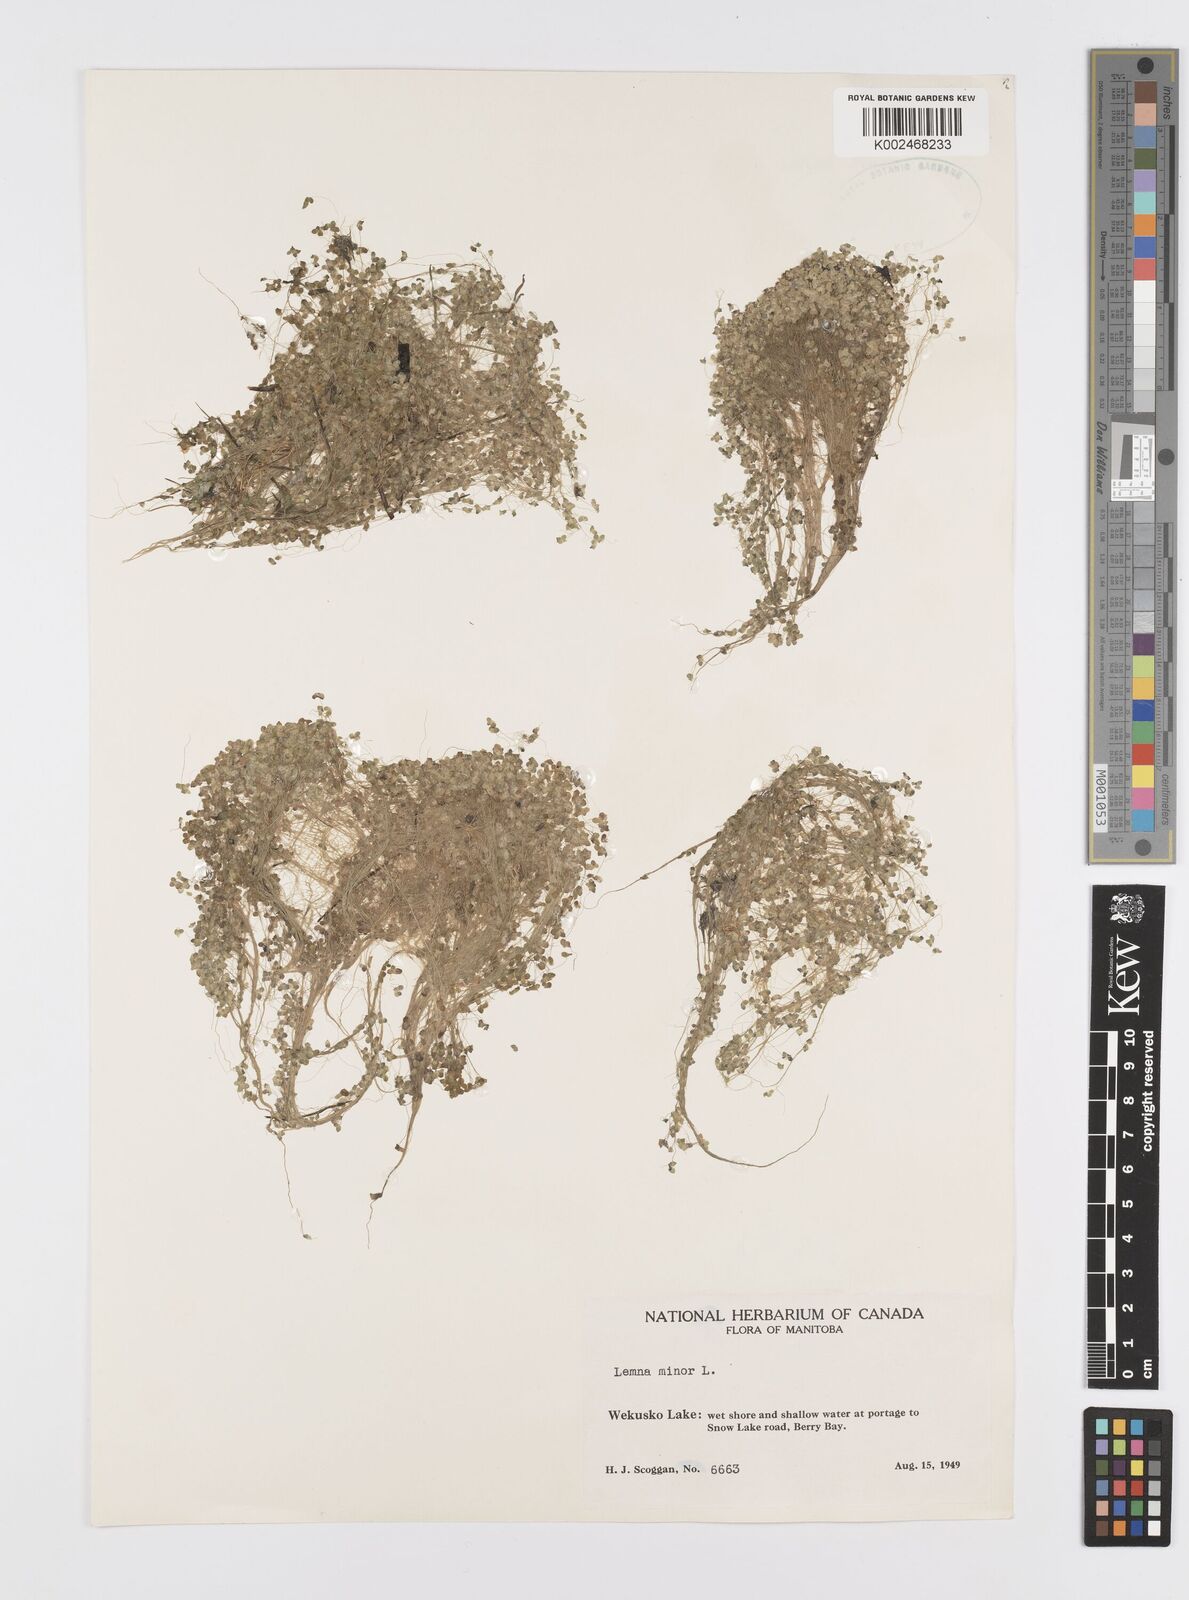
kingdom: Plantae
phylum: Tracheophyta
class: Liliopsida
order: Alismatales
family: Araceae
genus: Lemna
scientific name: Lemna minor
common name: Common duckweed
